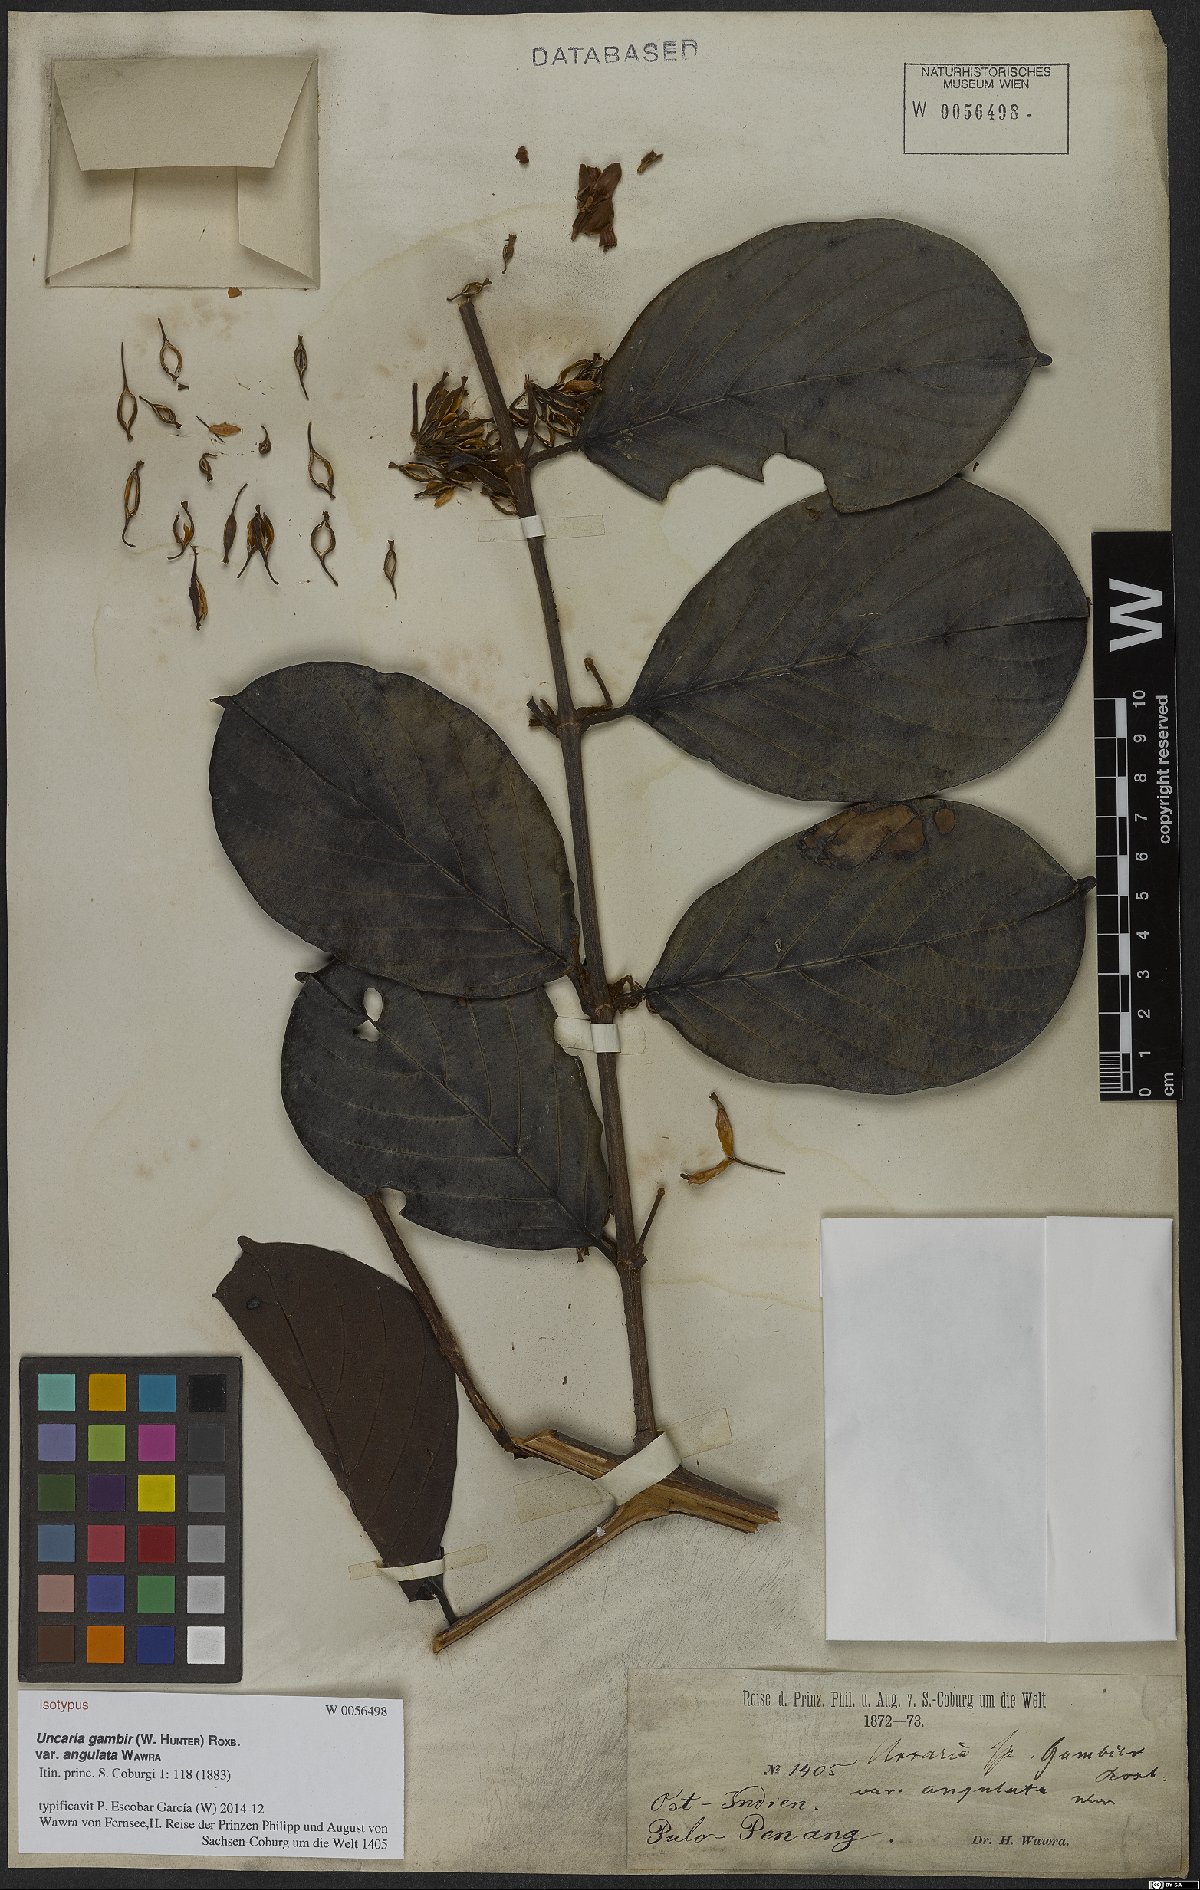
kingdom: Plantae
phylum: Tracheophyta
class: Magnoliopsida
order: Gentianales
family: Rubiaceae
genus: Uncaria
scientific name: Uncaria gambir
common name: Pale catechu
